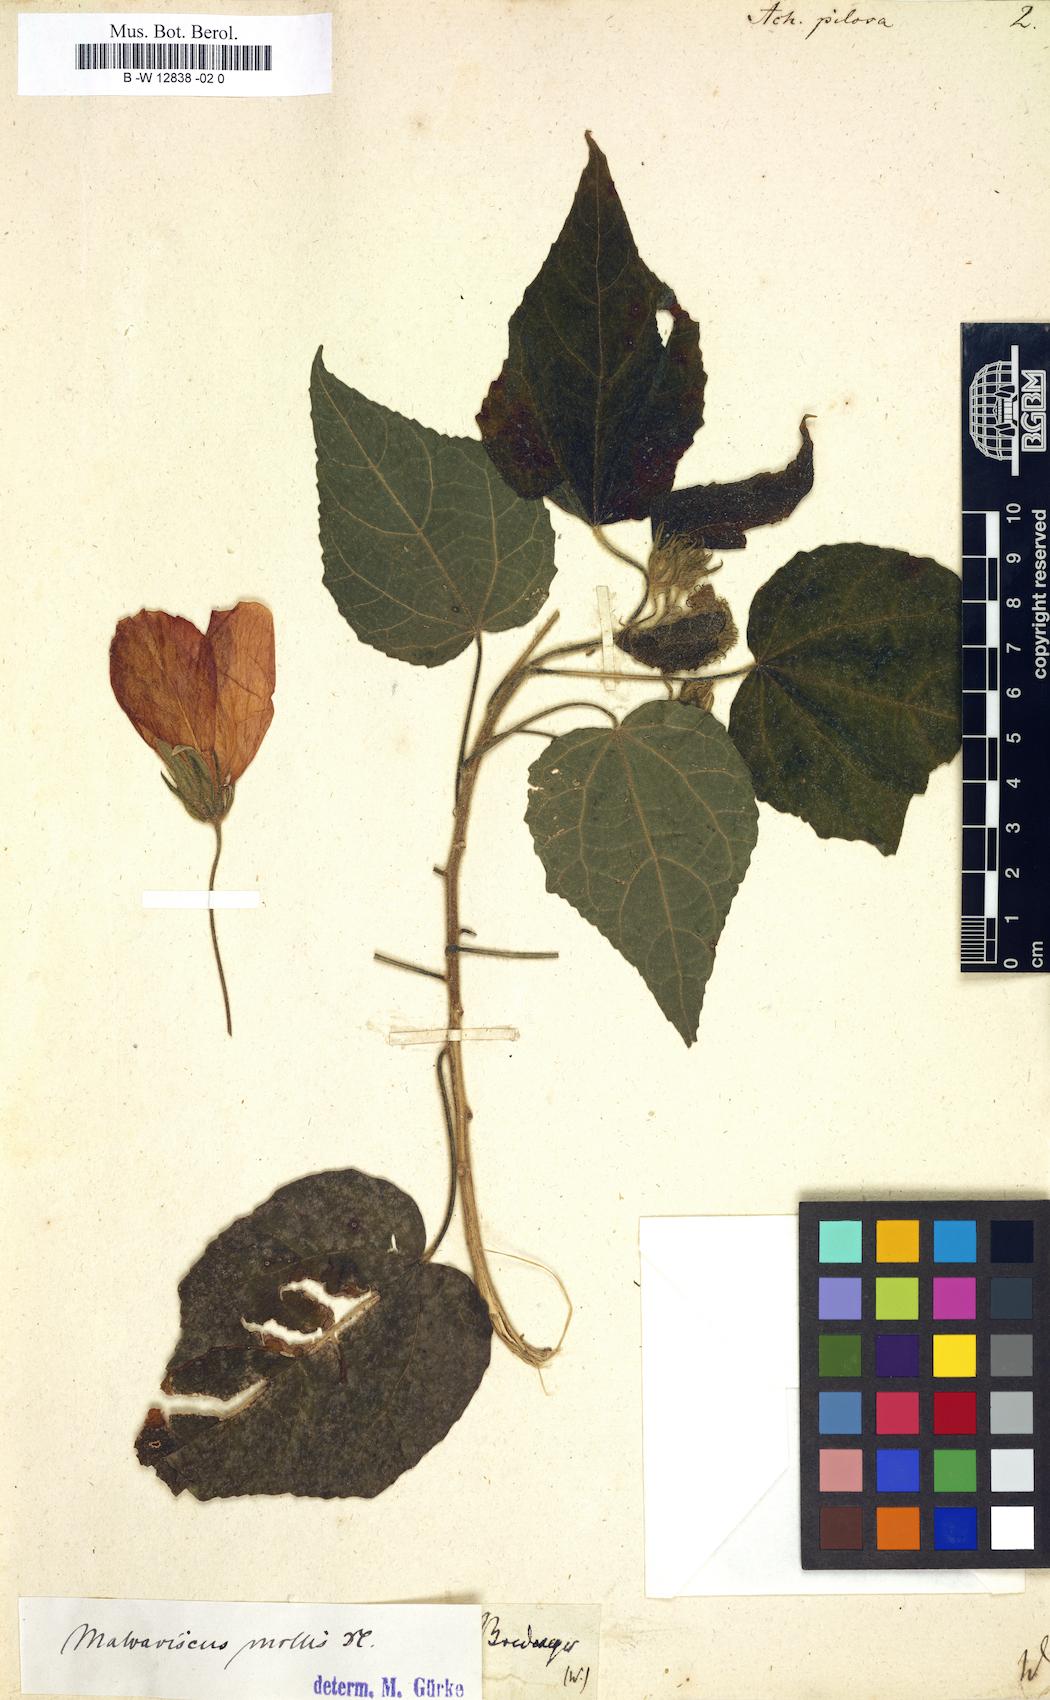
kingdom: Plantae
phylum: Tracheophyta
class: Magnoliopsida
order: Malvales
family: Malvaceae
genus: Malvaviscus
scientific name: Malvaviscus arboreus
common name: Wax mallow
